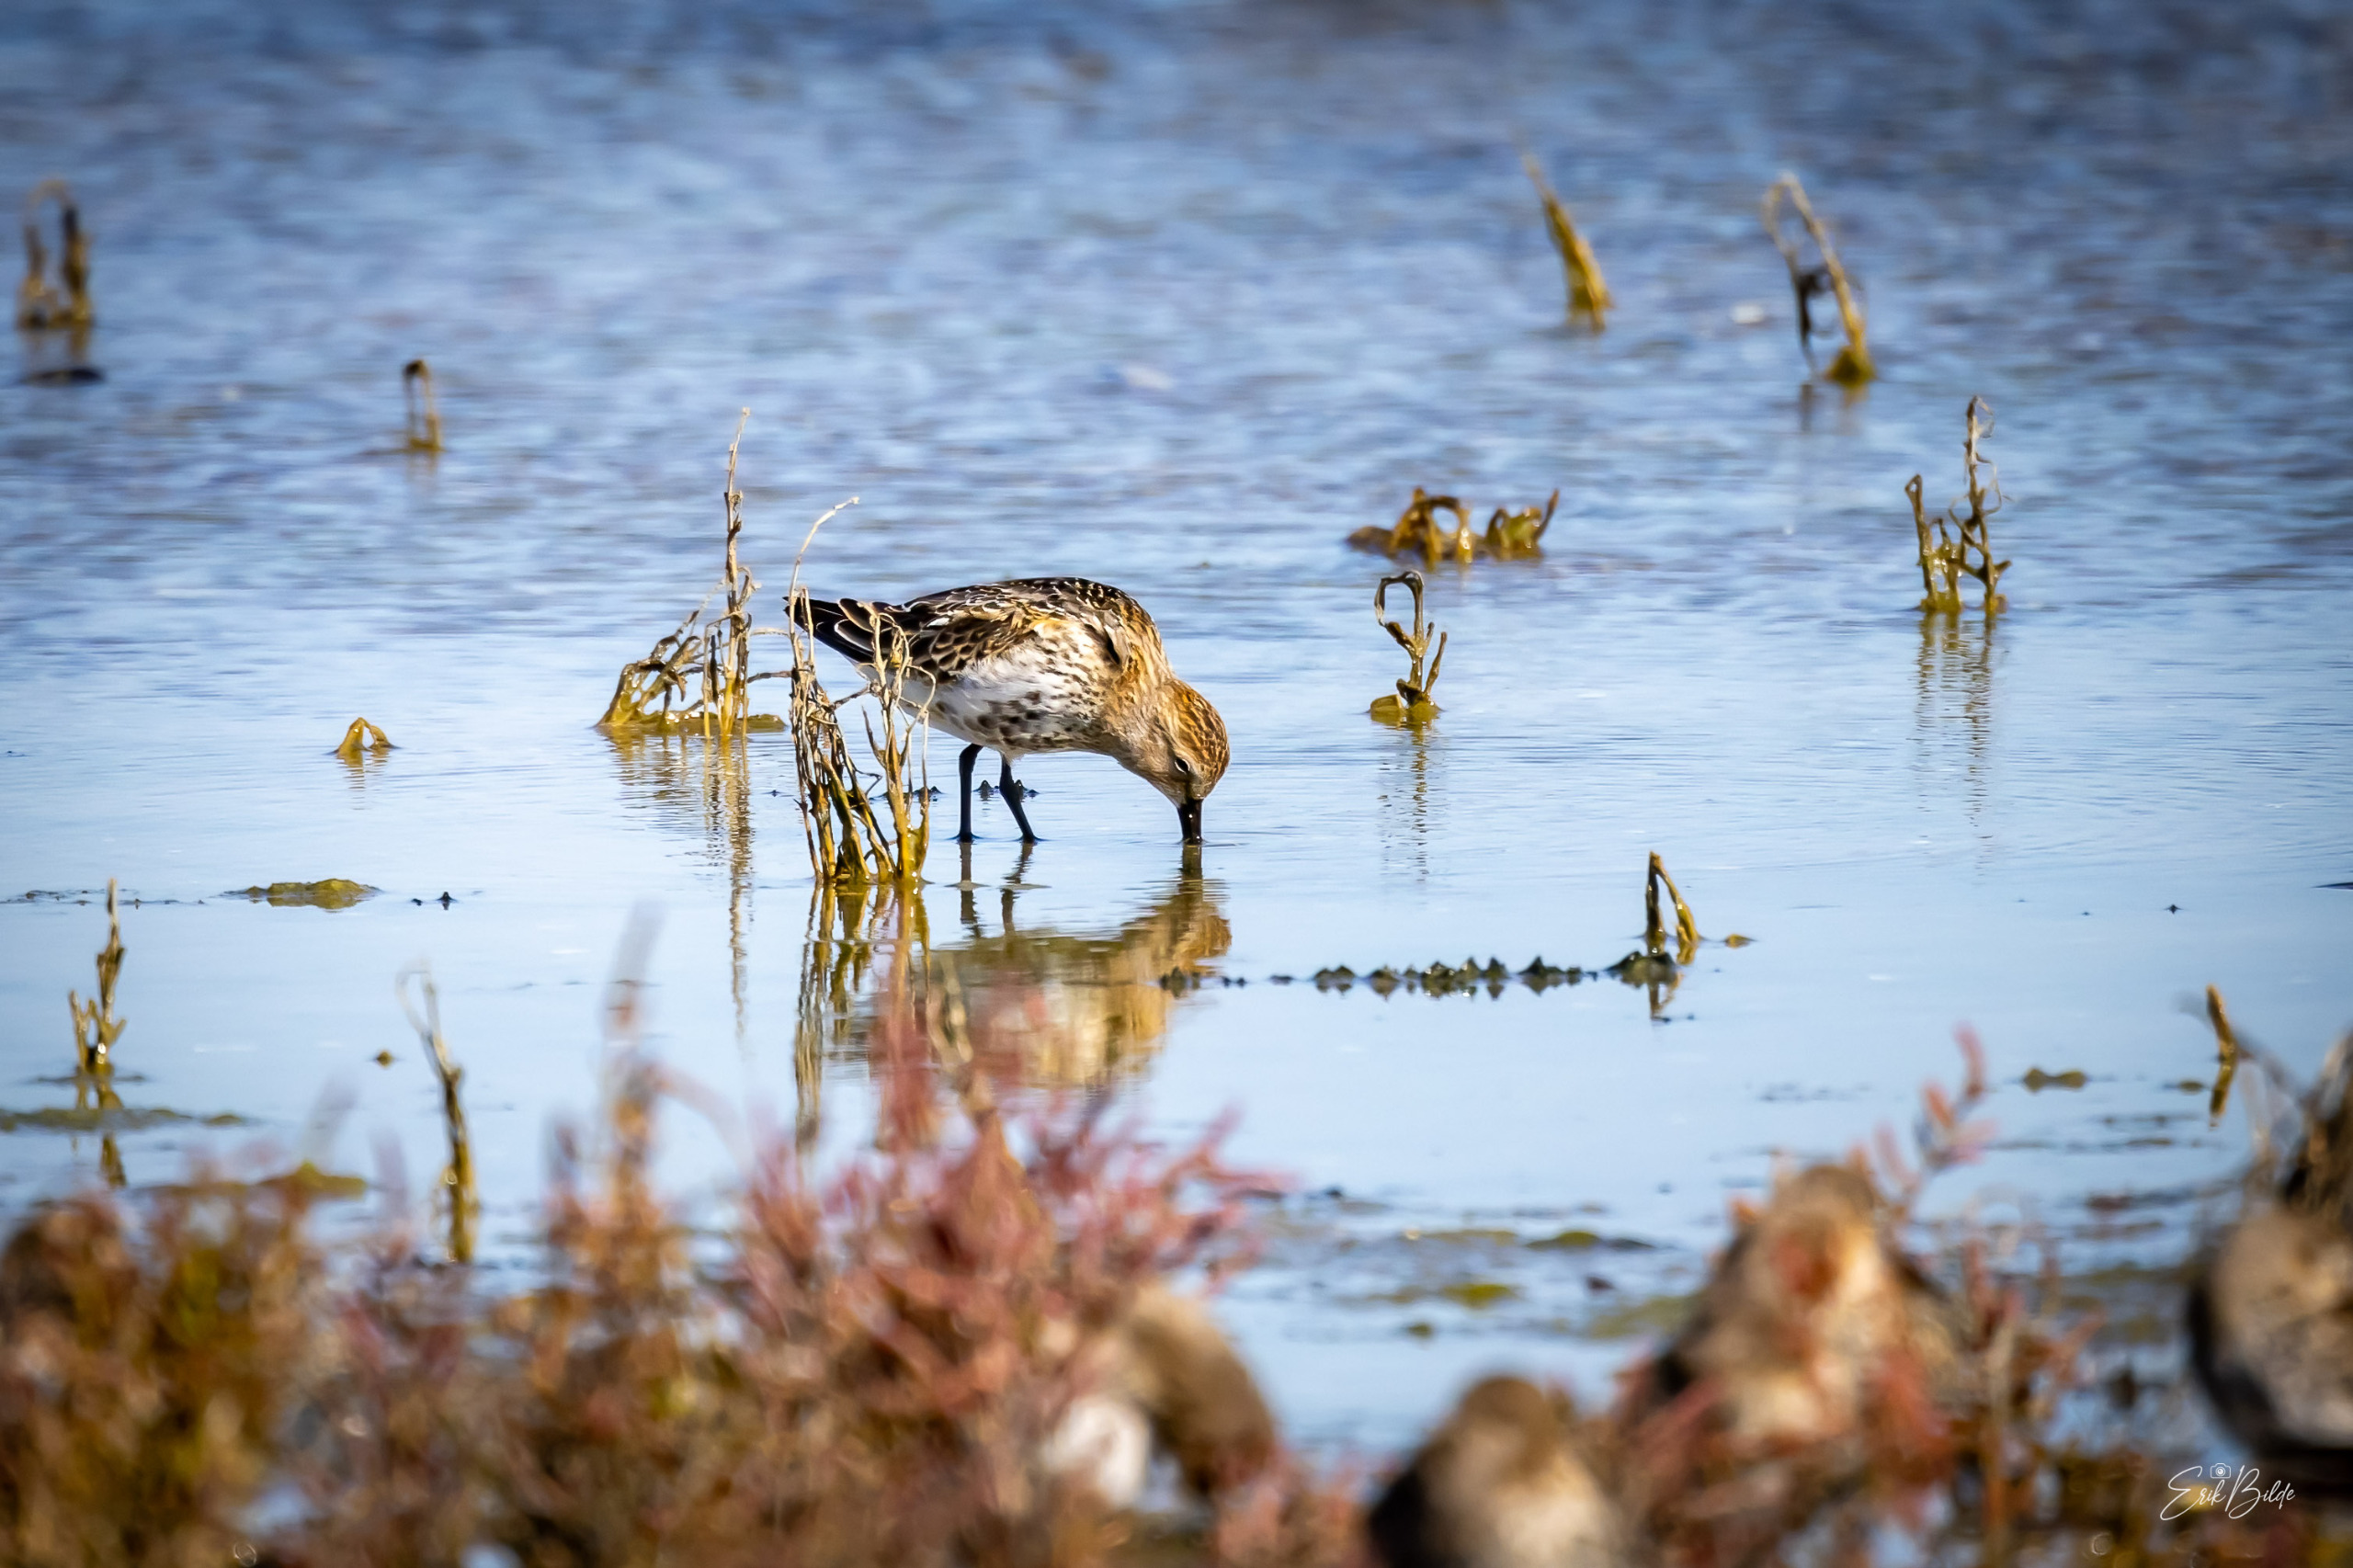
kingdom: Animalia
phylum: Chordata
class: Aves
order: Charadriiformes
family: Scolopacidae
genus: Calidris
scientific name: Calidris alpina
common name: Almindelig ryle
